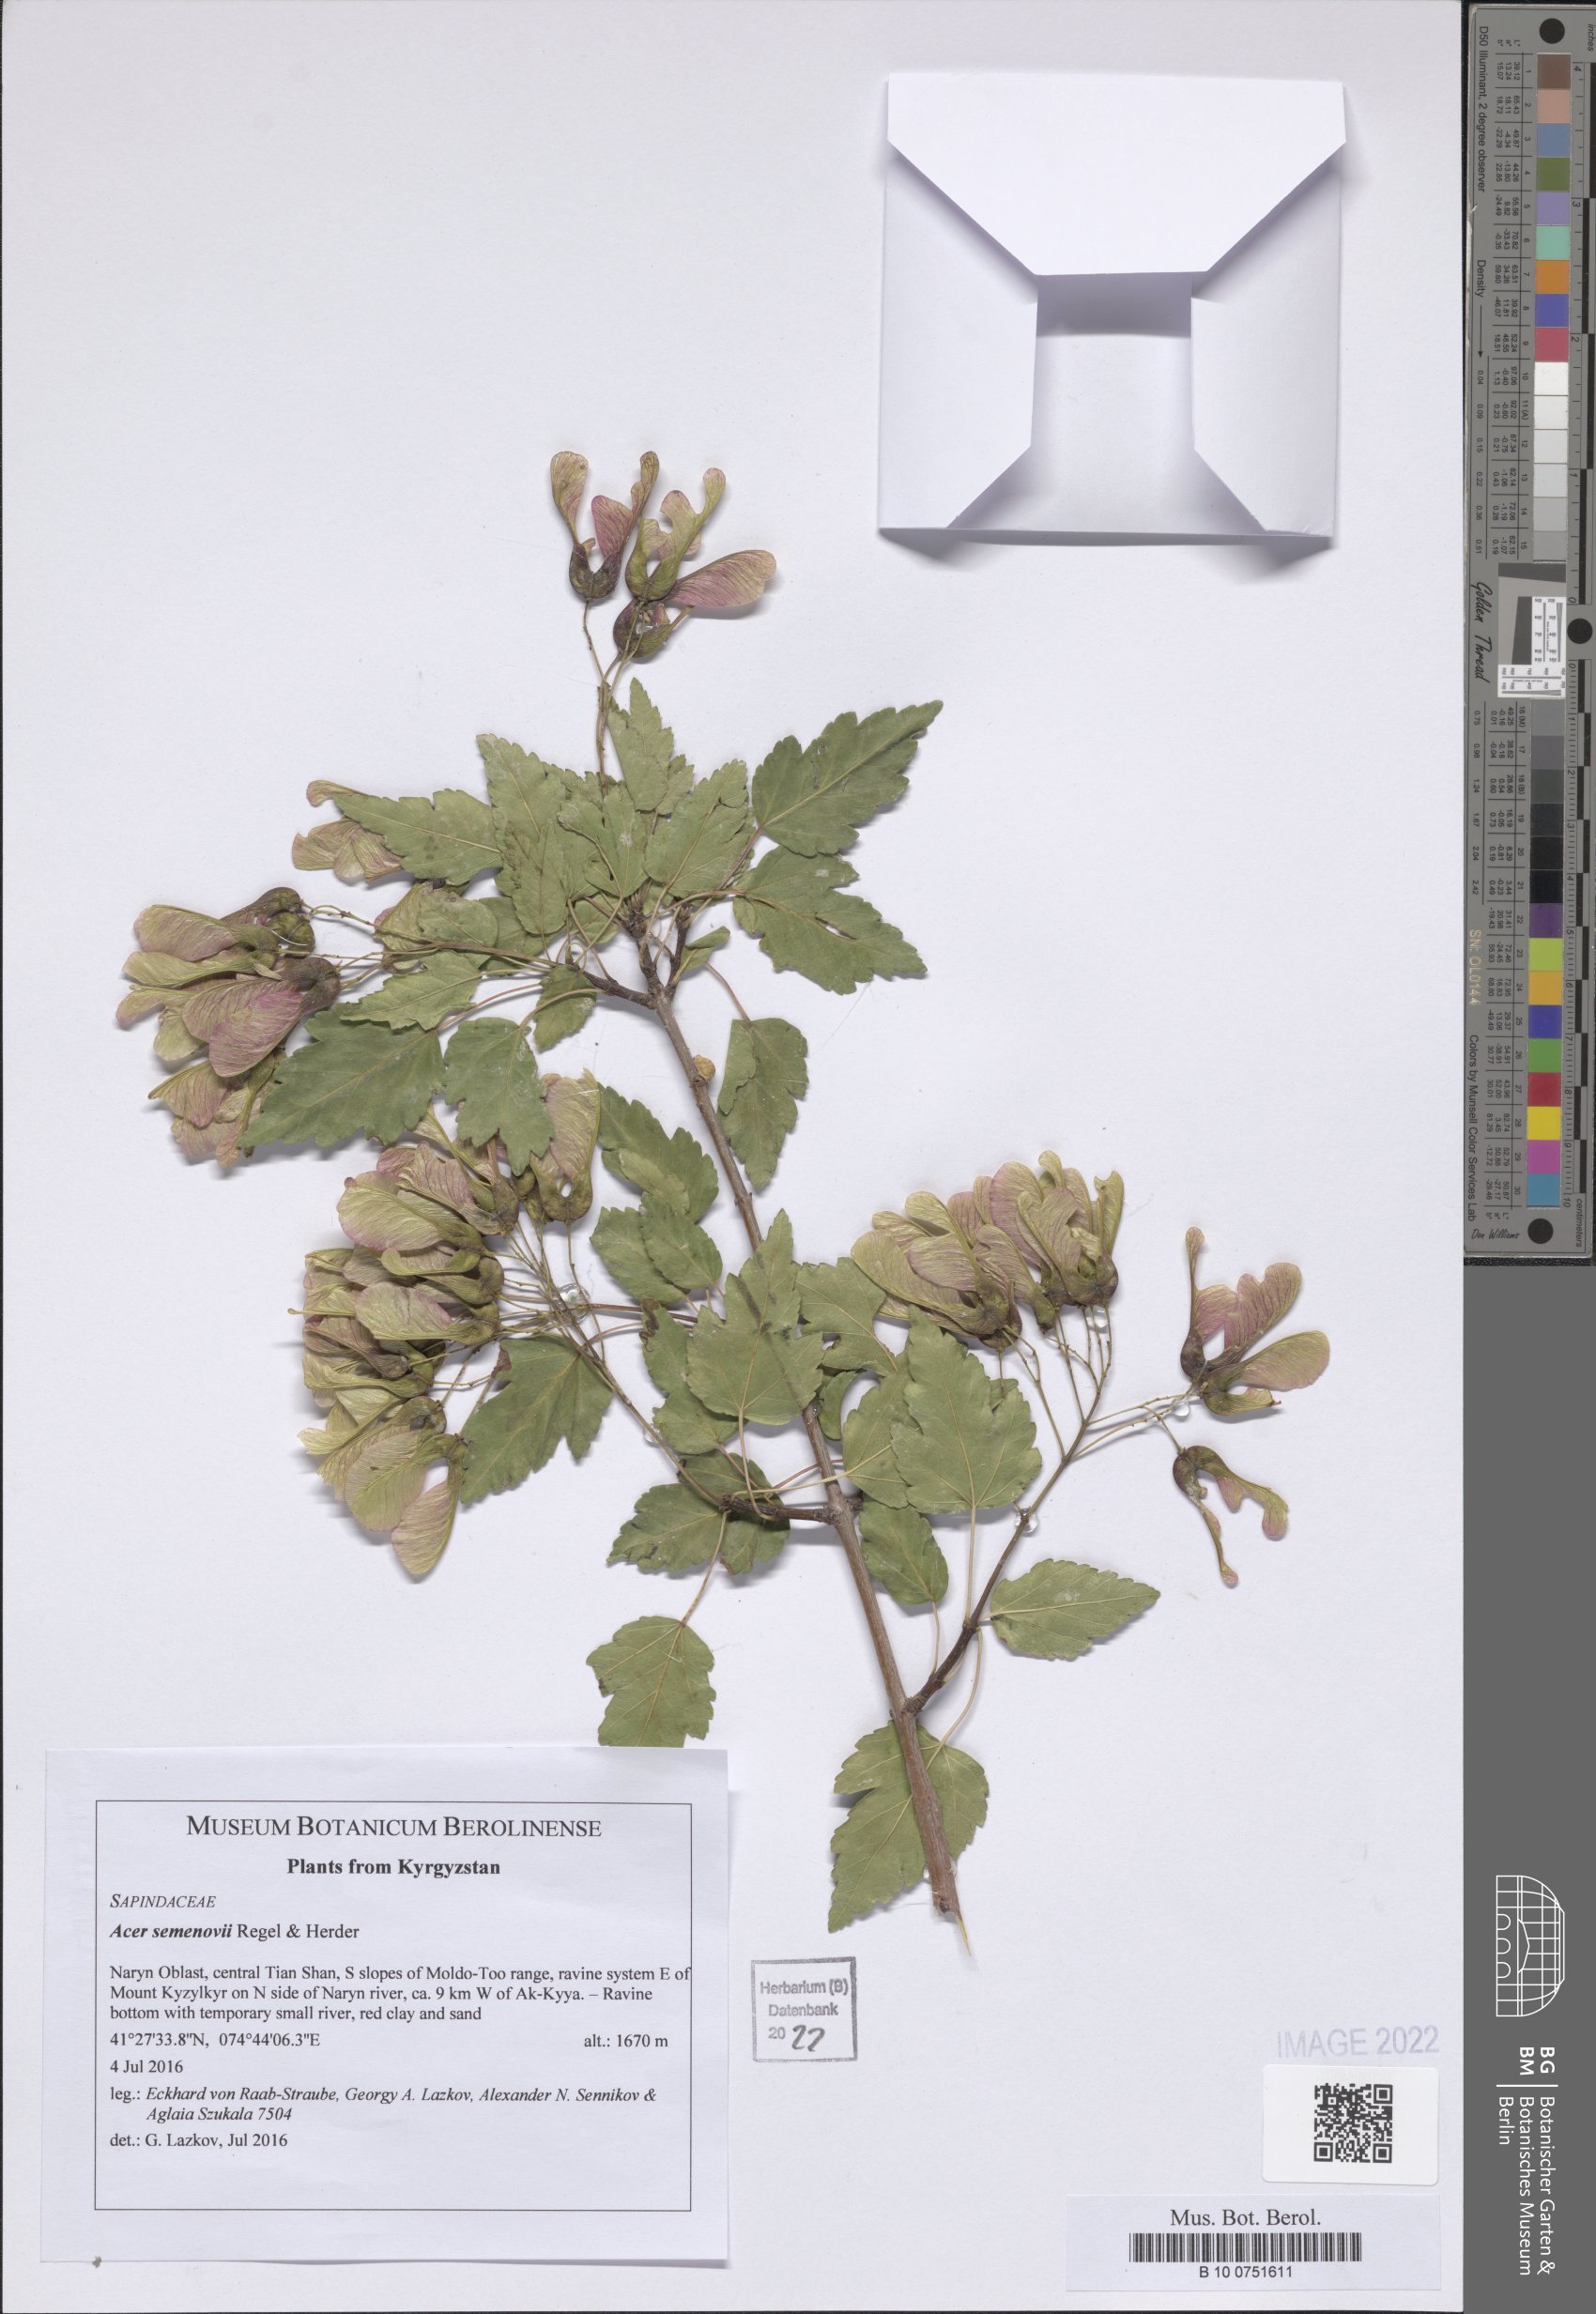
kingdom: Plantae
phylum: Tracheophyta
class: Magnoliopsida
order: Sapindales
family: Sapindaceae
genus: Acer
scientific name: Acer tataricum
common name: Tartar maple
